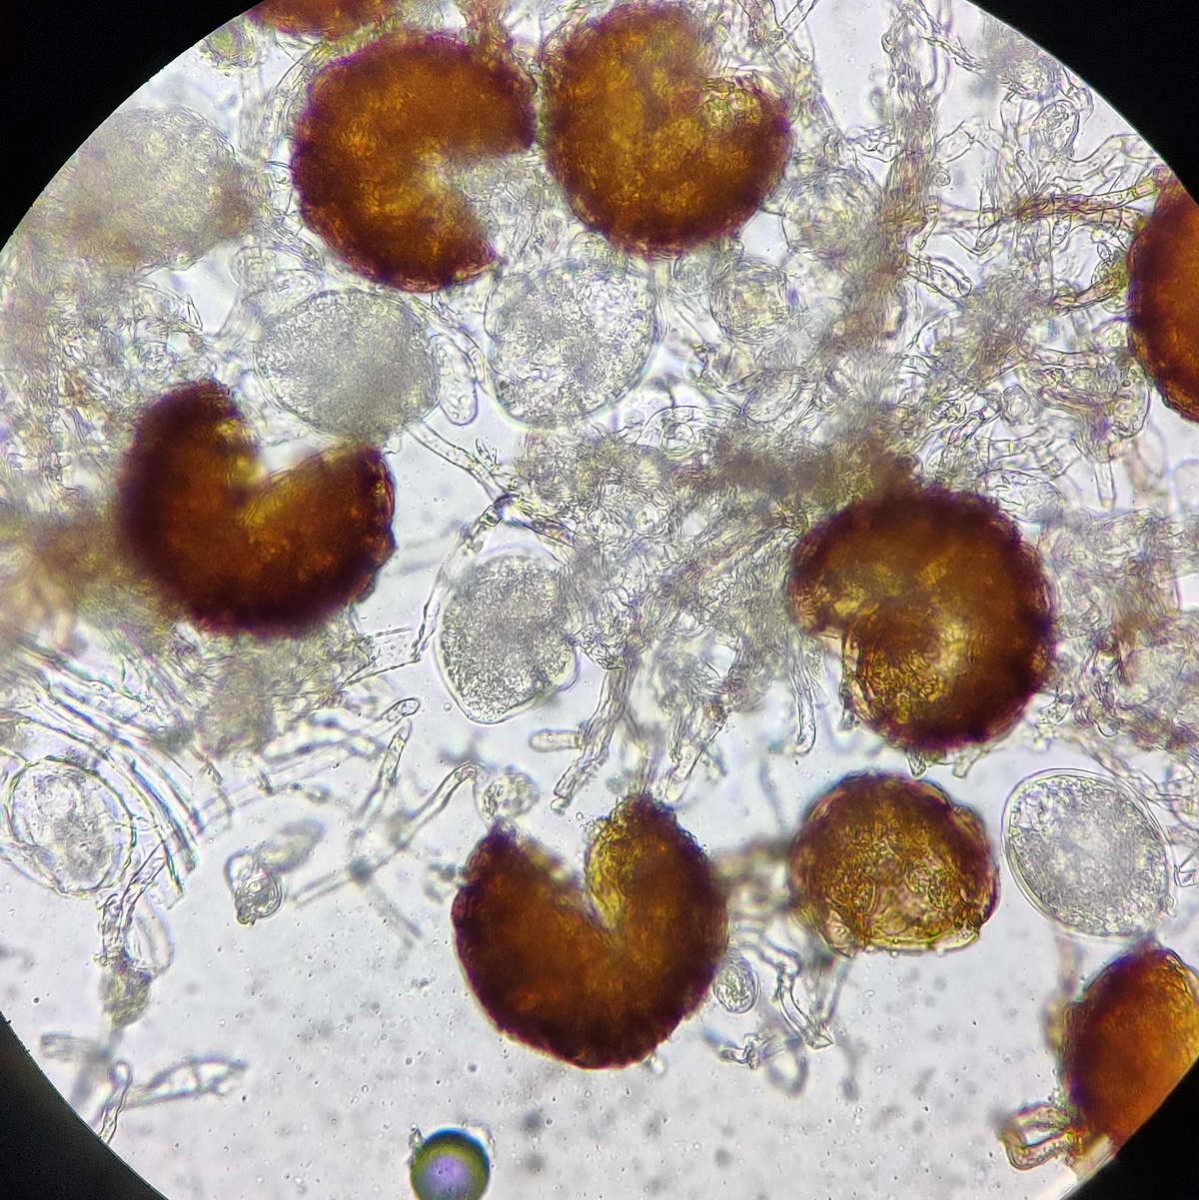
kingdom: Fungi
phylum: Ascomycota
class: Leotiomycetes
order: Helotiales
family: Erysiphaceae
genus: Neoerysiphe
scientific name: Neoerysiphe galeopsidis
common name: Mint mildew
